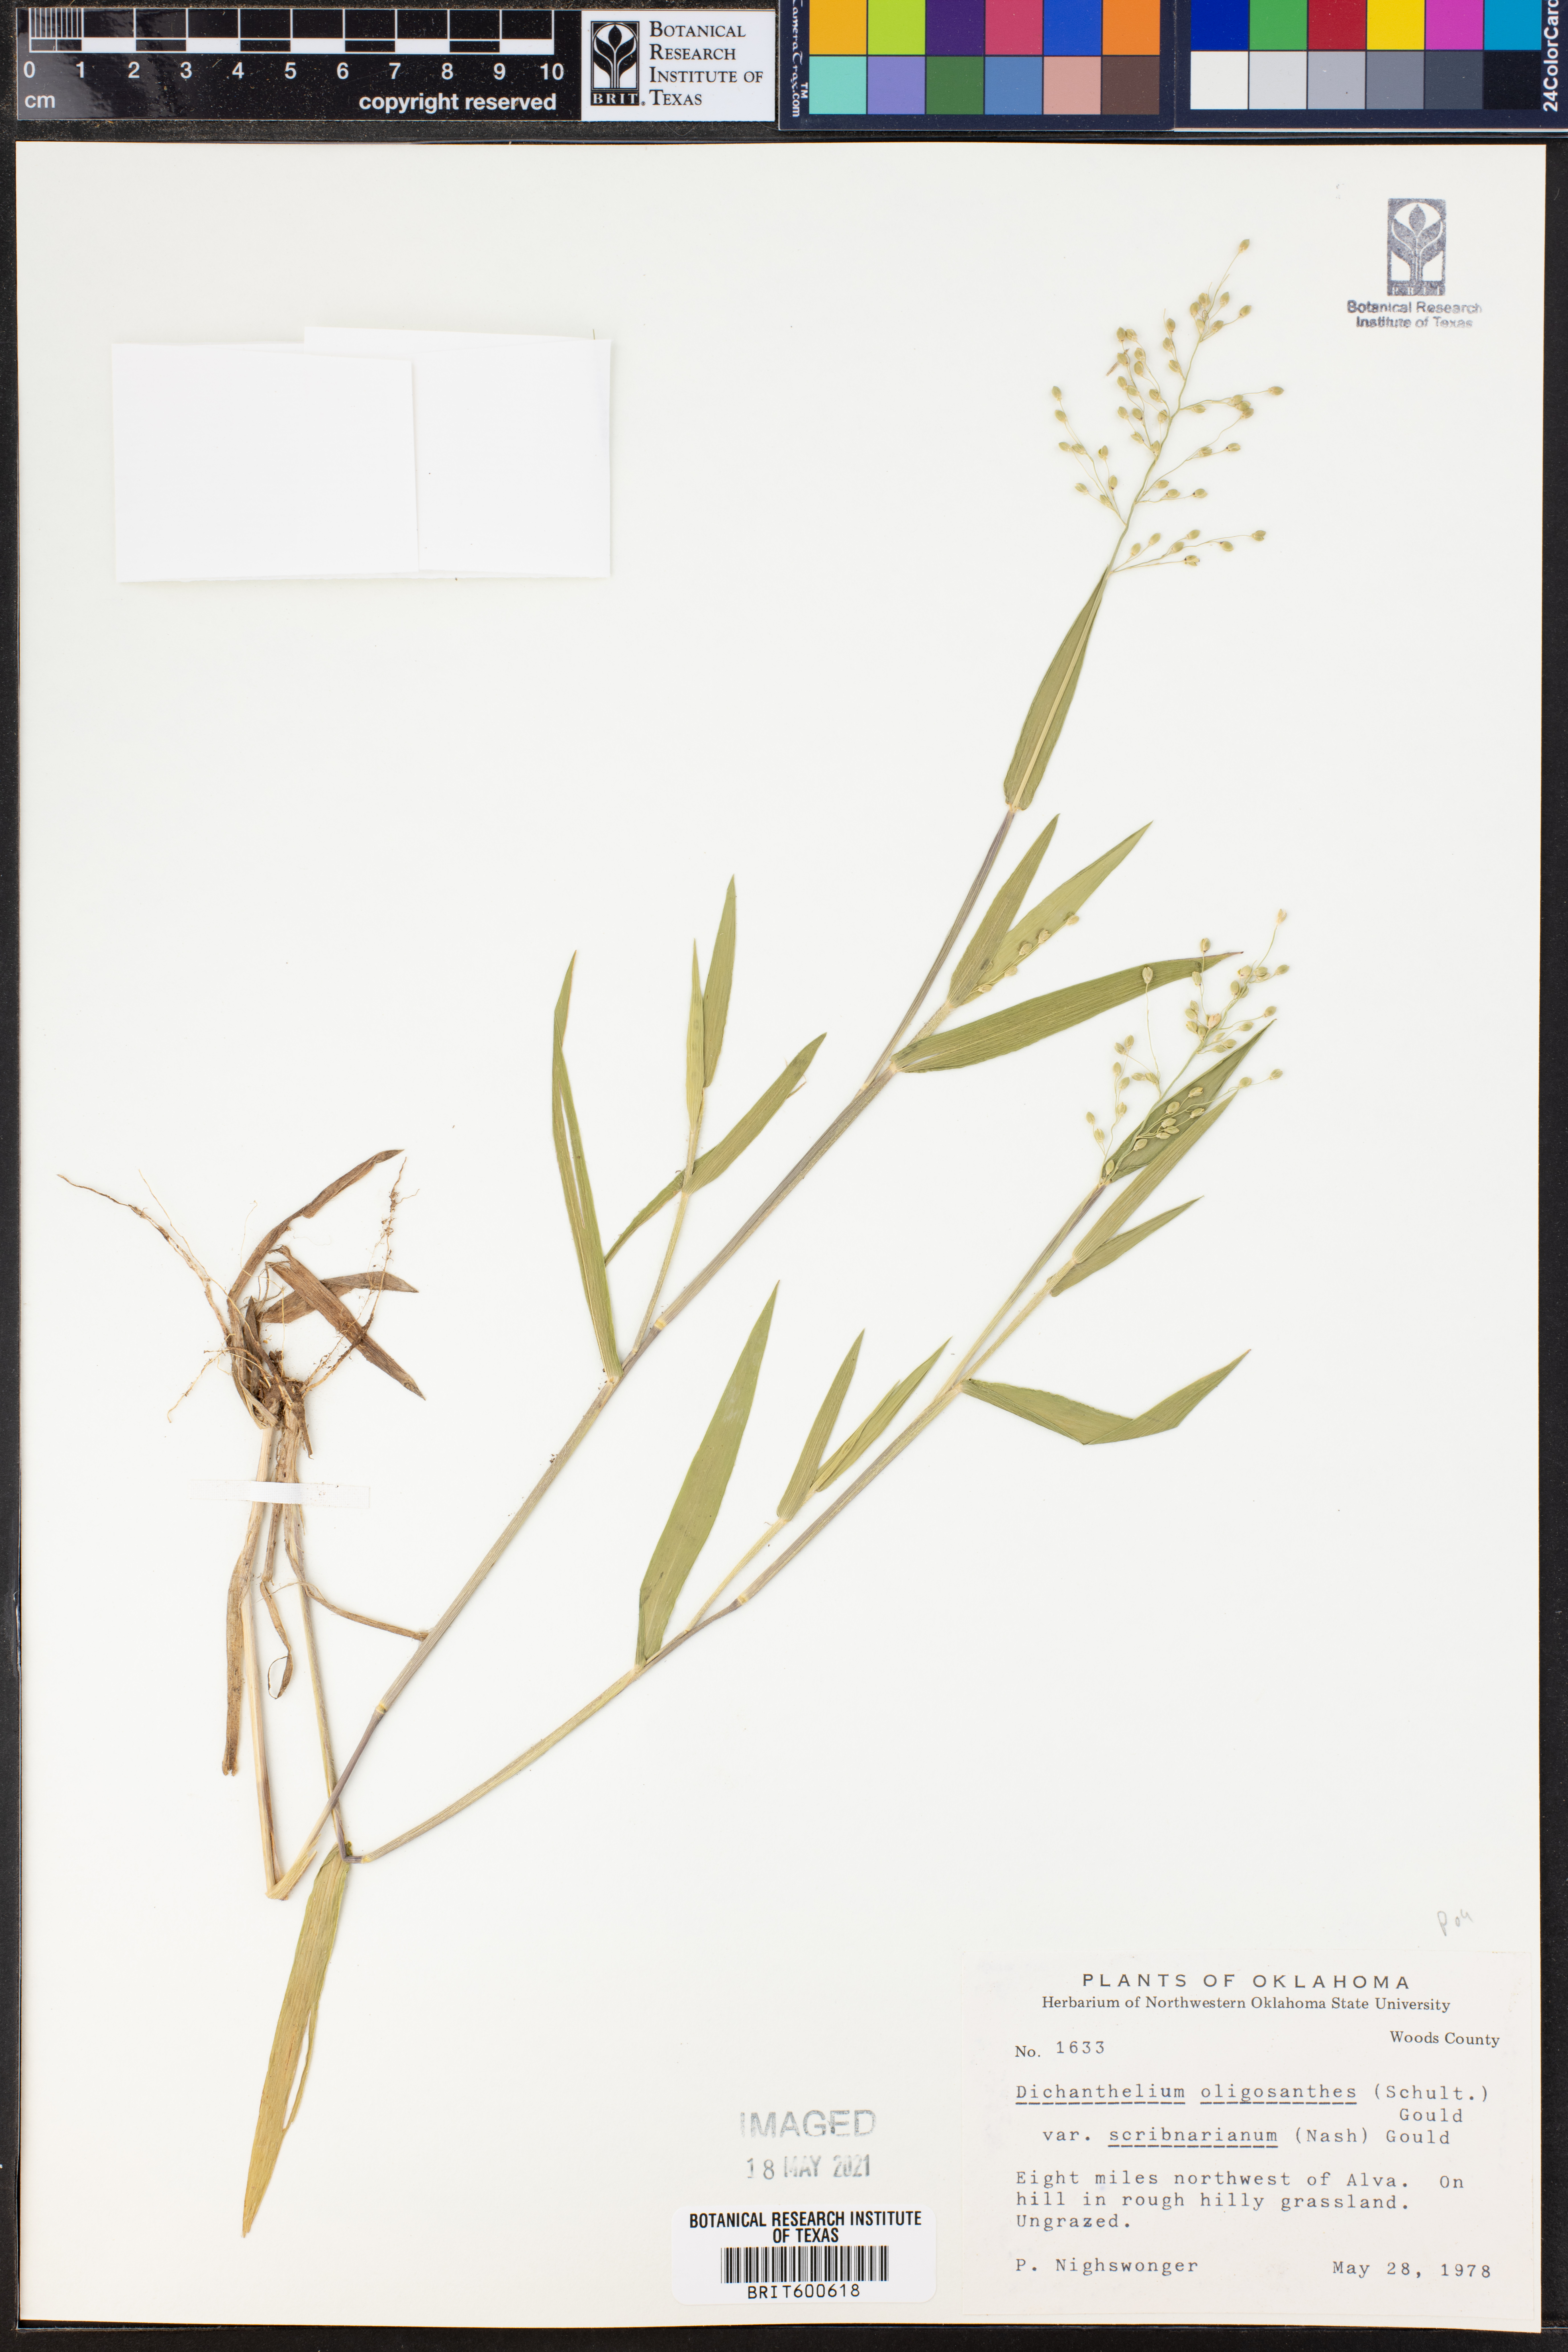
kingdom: Plantae
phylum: Tracheophyta
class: Liliopsida
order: Poales
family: Poaceae
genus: Dichanthelium
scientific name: Dichanthelium scribnerianum
